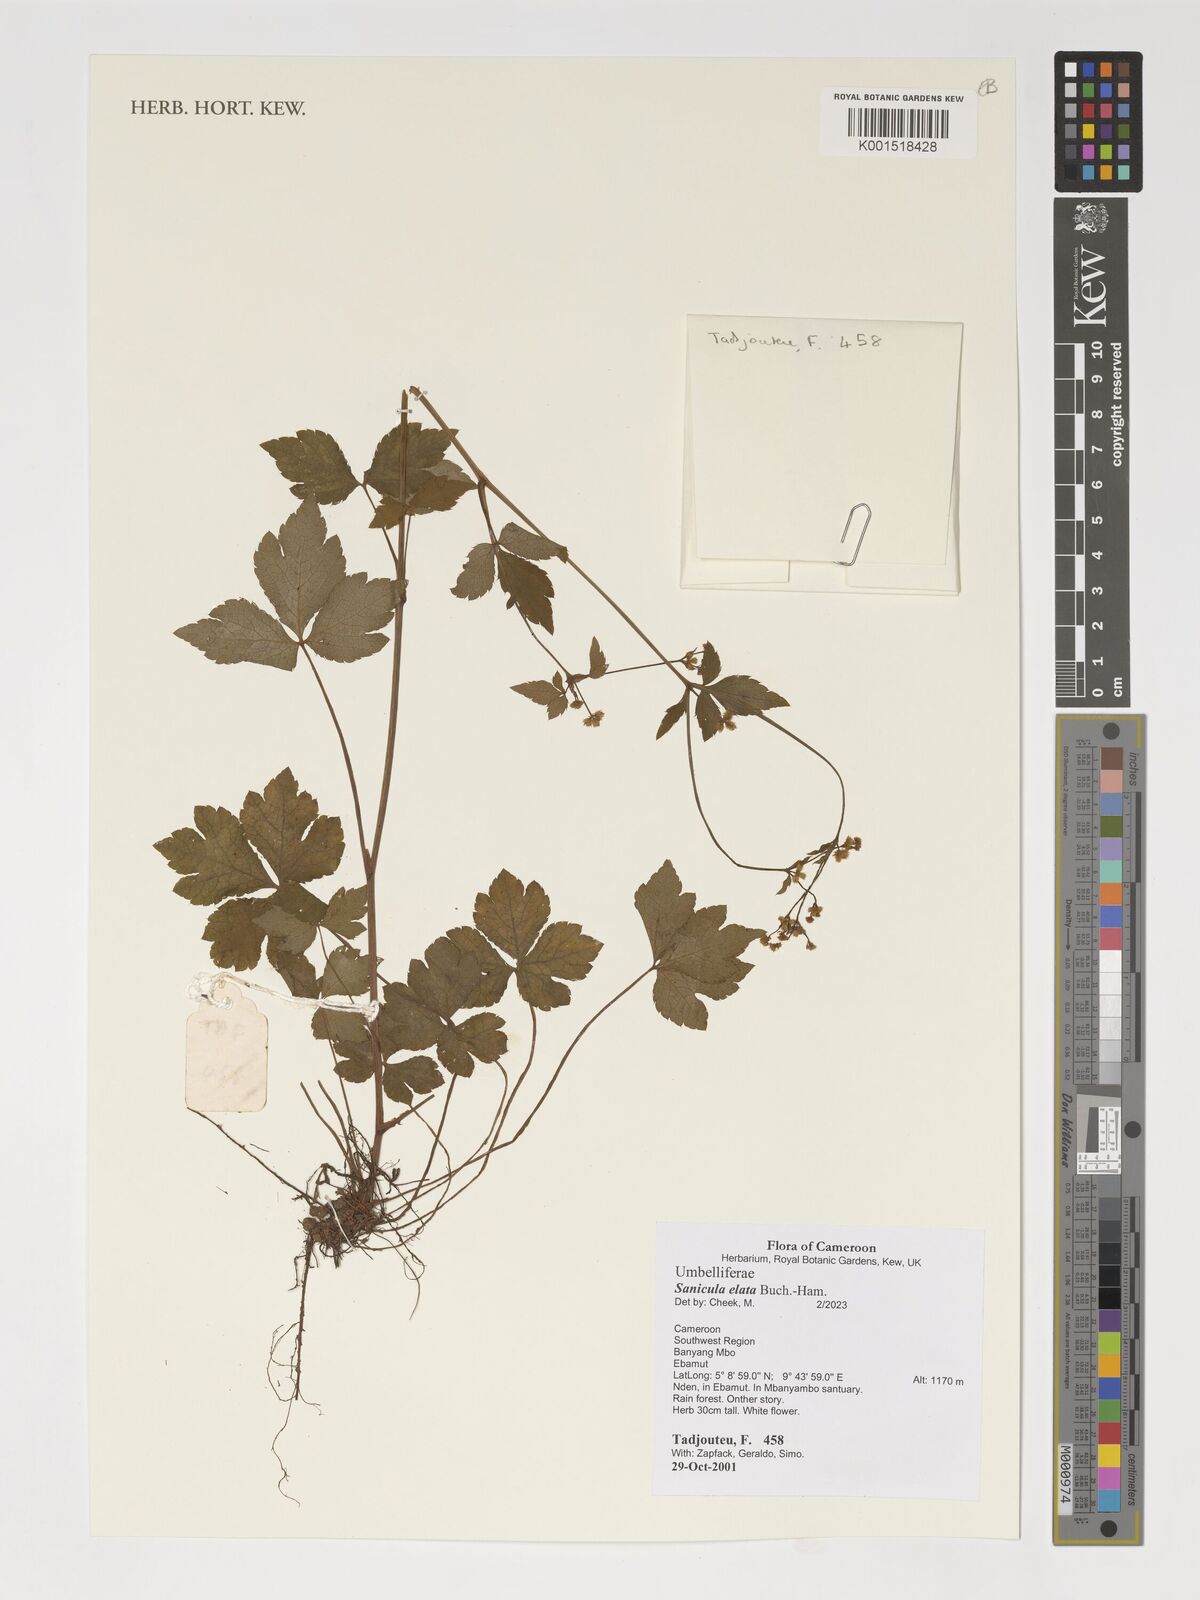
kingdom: Plantae
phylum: Tracheophyta
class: Magnoliopsida
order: Apiales
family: Apiaceae
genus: Sanicula
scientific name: Sanicula elata
